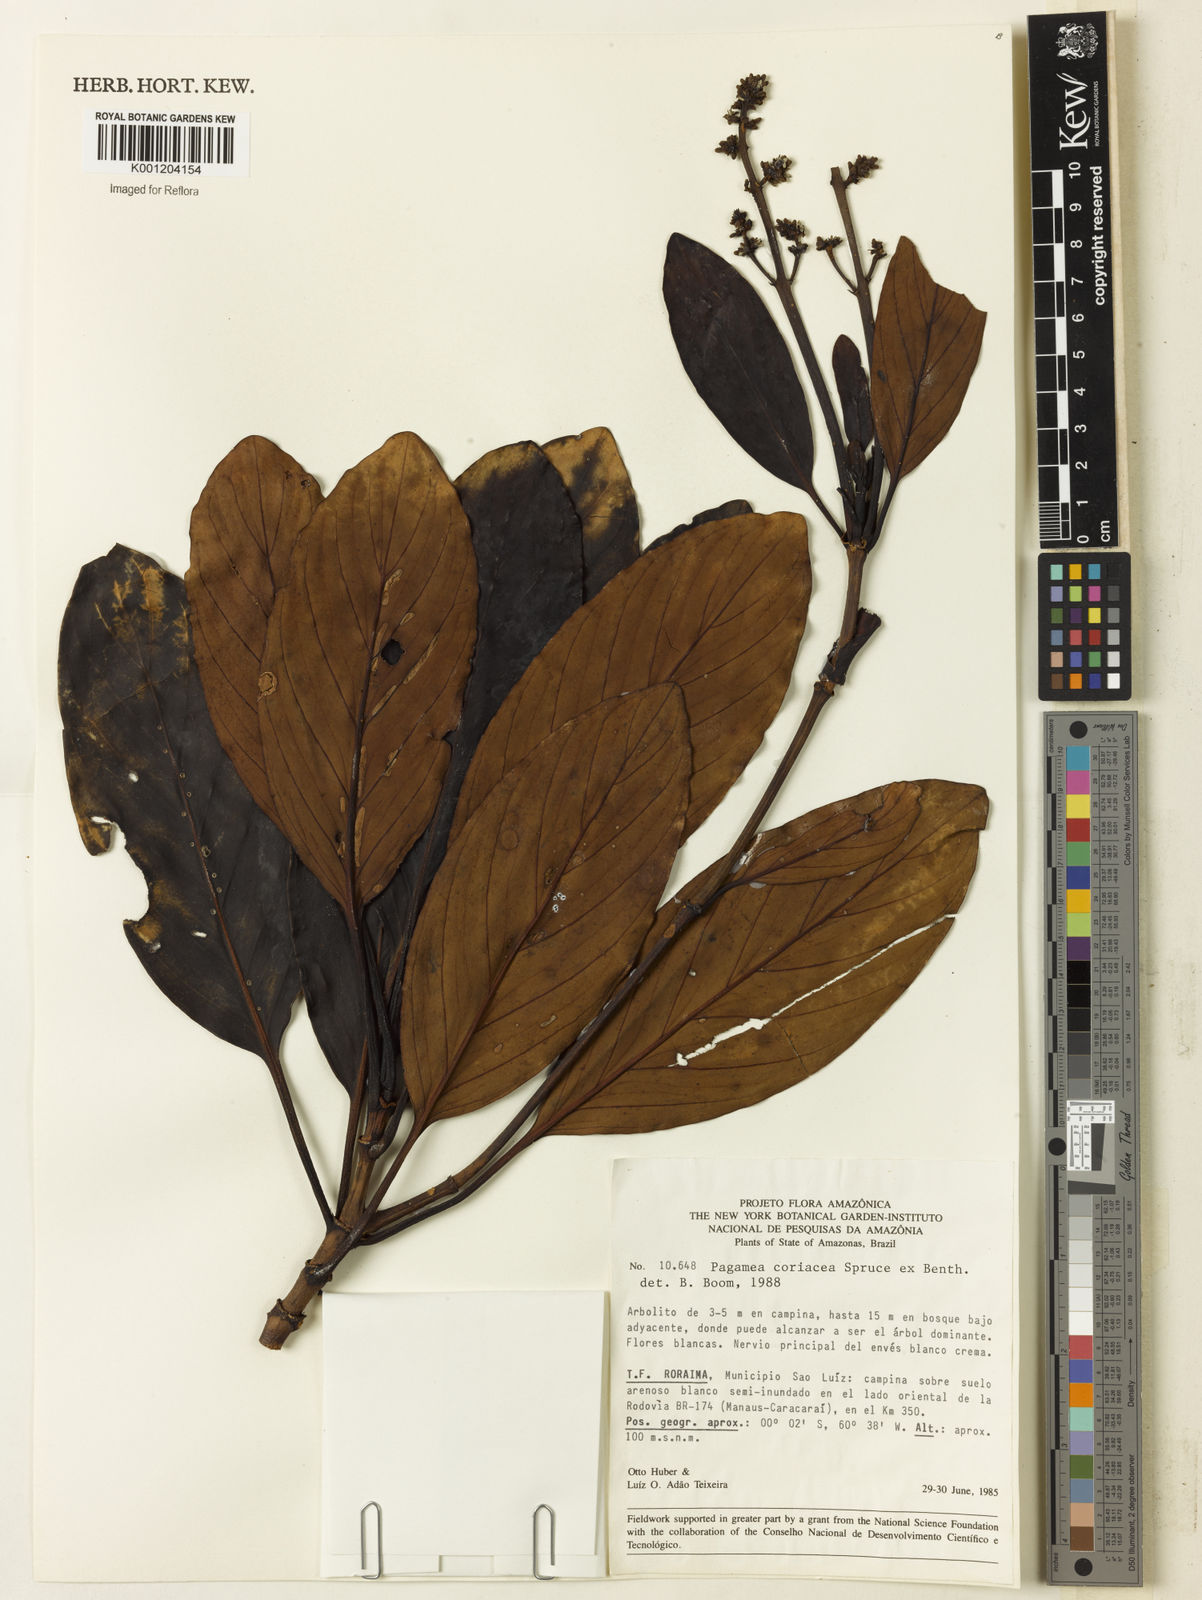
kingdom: Plantae
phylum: Tracheophyta
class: Magnoliopsida
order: Gentianales
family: Rubiaceae
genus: Pagamea
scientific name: Pagamea coriacea
